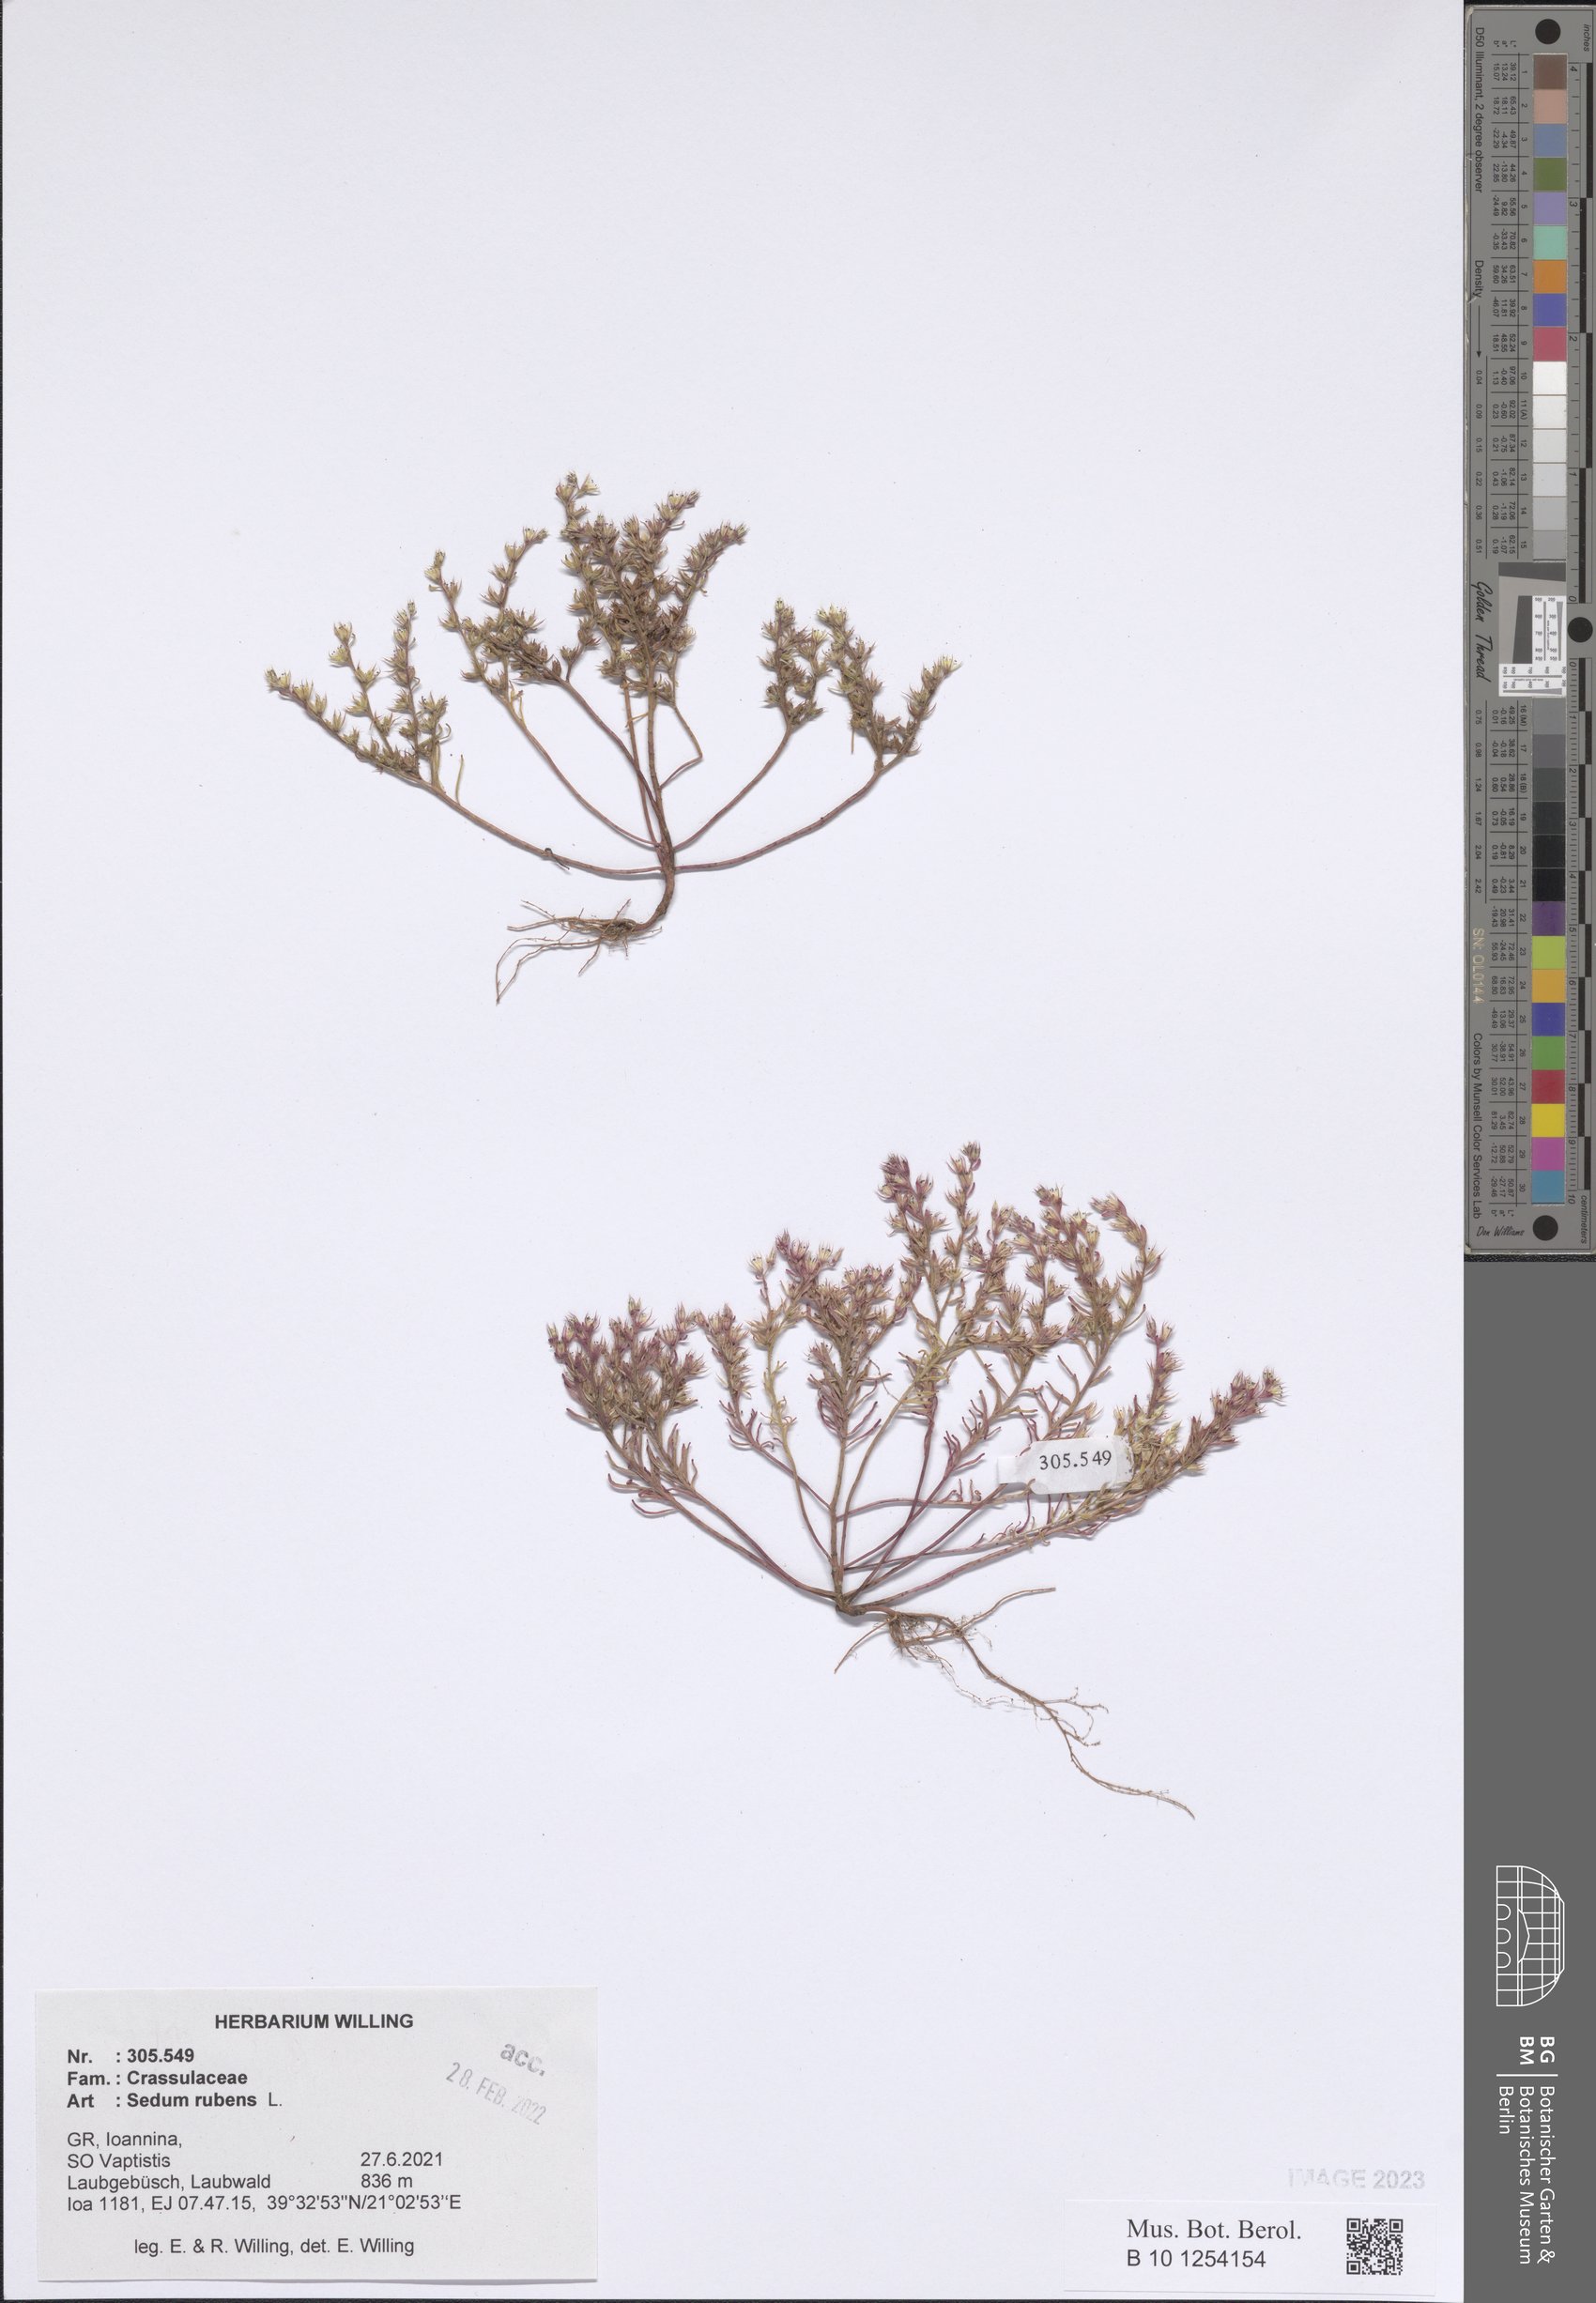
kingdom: Plantae
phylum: Tracheophyta
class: Magnoliopsida
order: Saxifragales
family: Crassulaceae
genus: Sedum
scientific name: Sedum rubens
